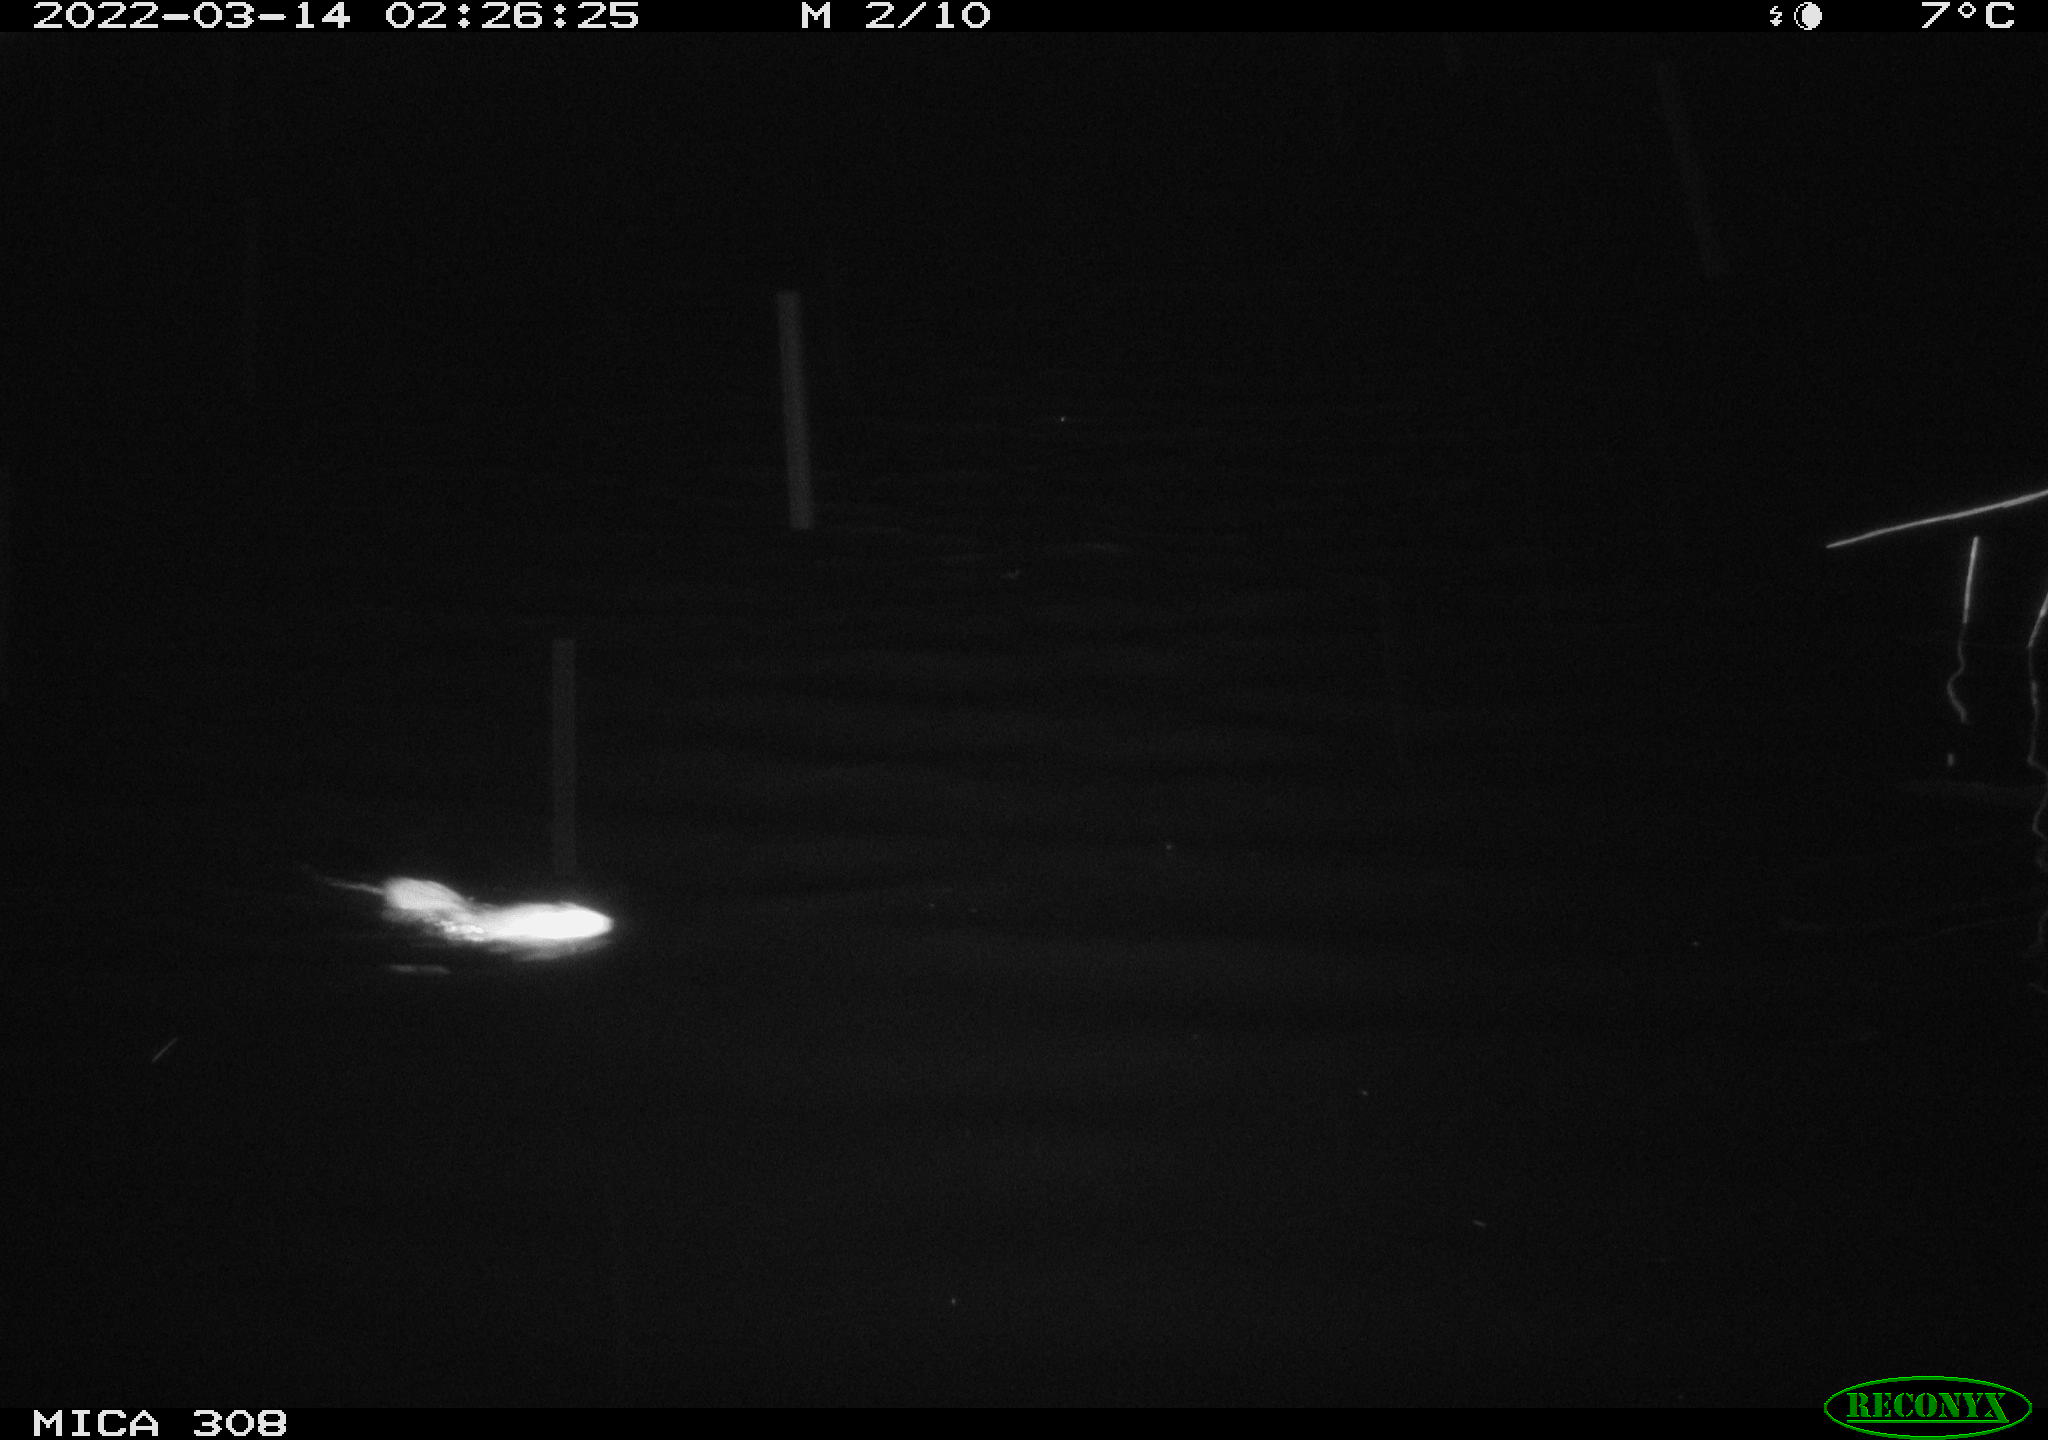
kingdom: Animalia
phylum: Chordata
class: Mammalia
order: Rodentia
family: Cricetidae
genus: Ondatra
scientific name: Ondatra zibethicus
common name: Muskrat
